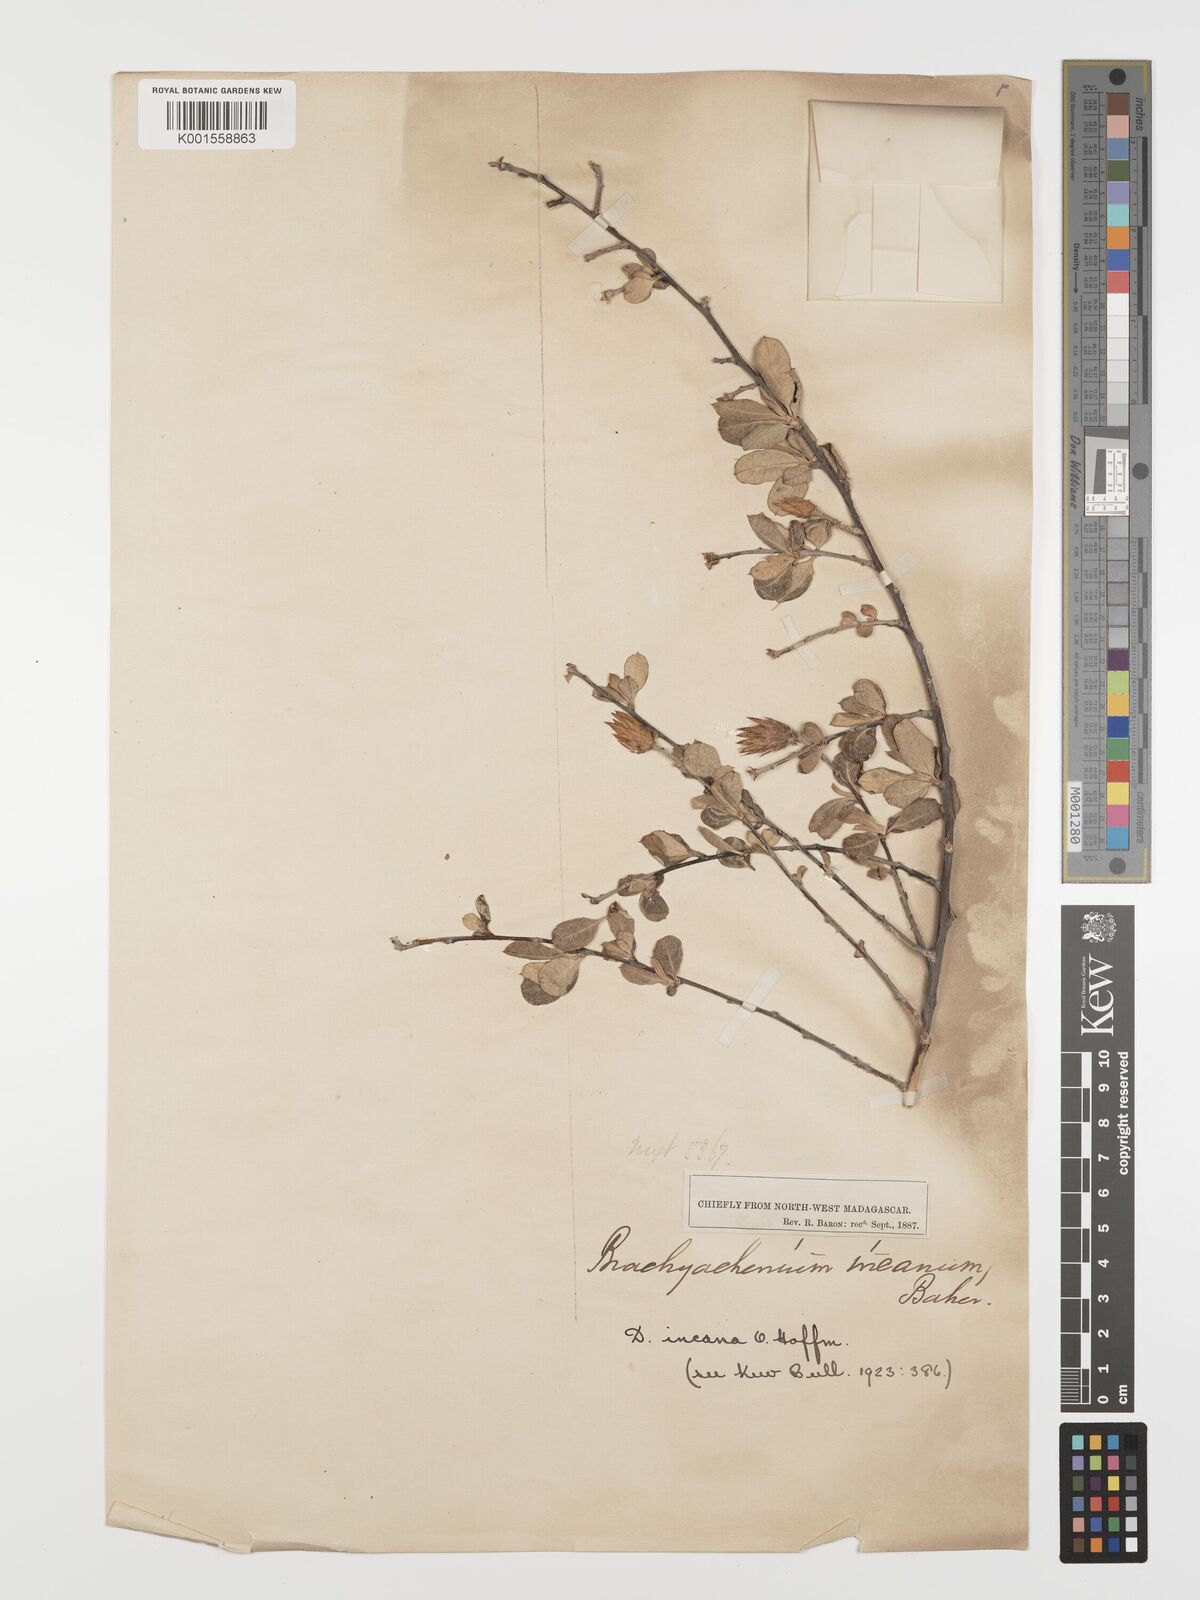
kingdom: Plantae
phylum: Tracheophyta
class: Magnoliopsida
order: Asterales
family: Asteraceae
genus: Dicoma
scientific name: Dicoma incana
